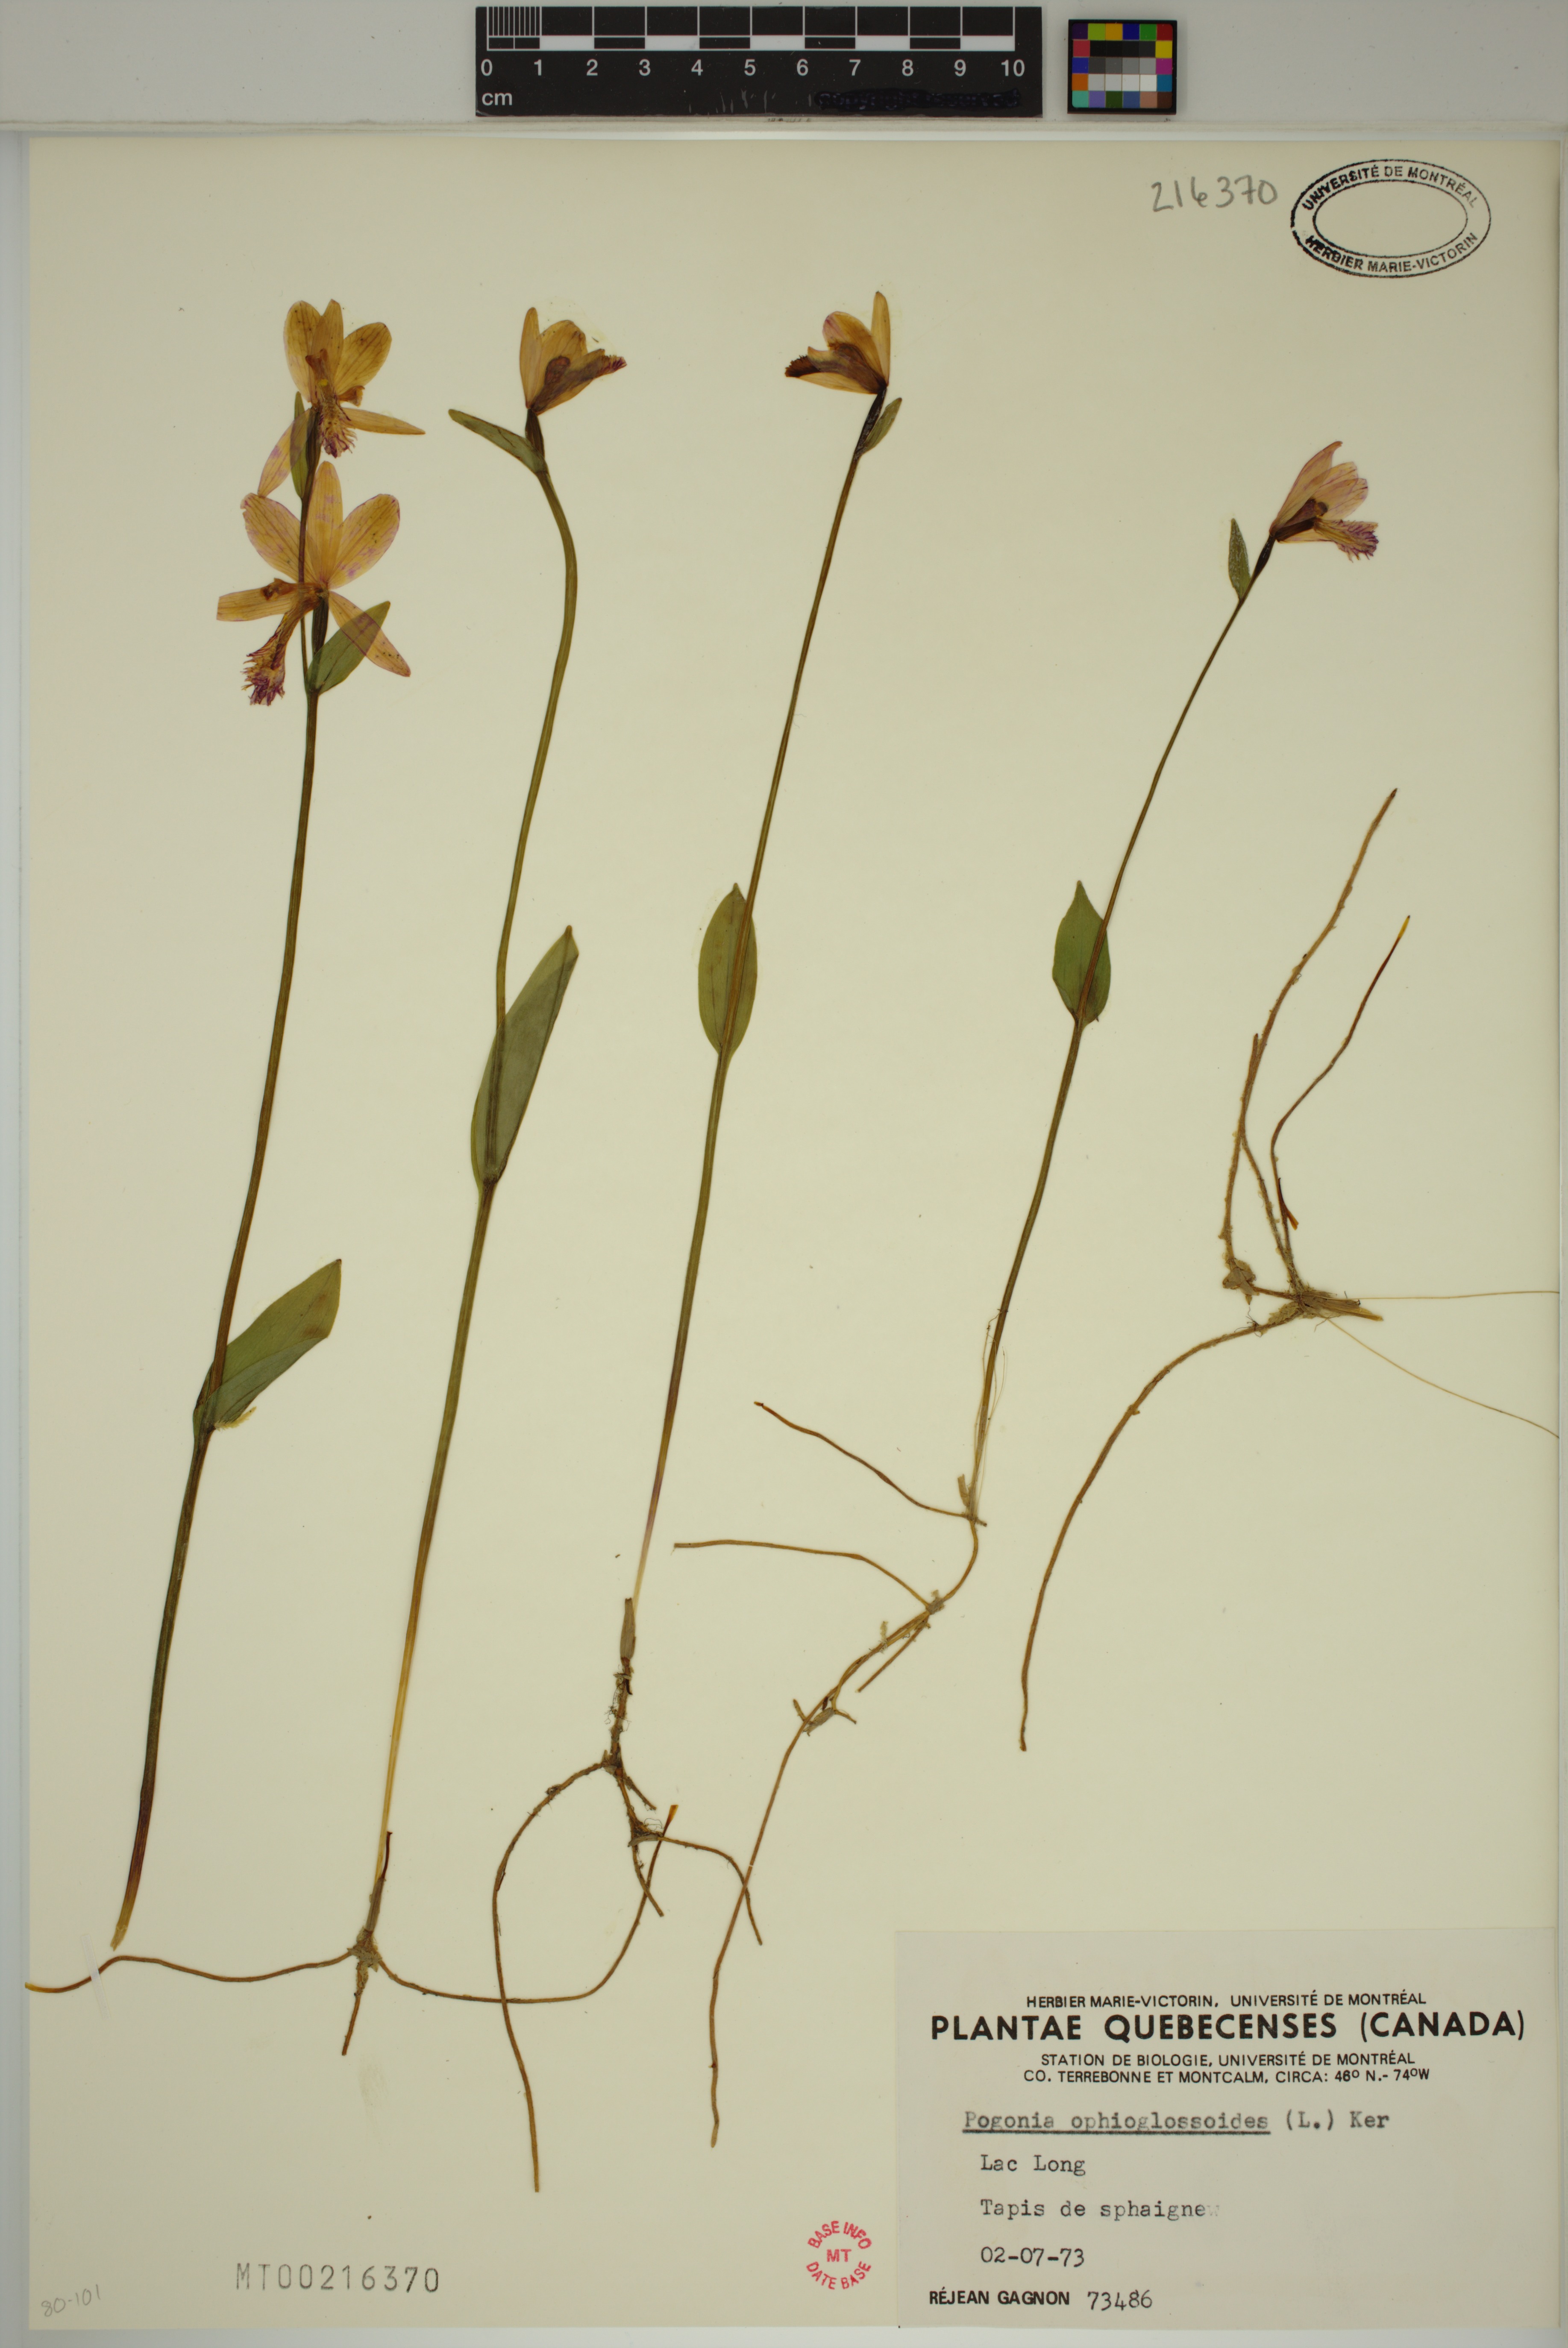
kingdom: Plantae
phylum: Tracheophyta
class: Liliopsida
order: Asparagales
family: Orchidaceae
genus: Pogonia
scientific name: Pogonia ophioglossoides
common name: Rose pogonia
